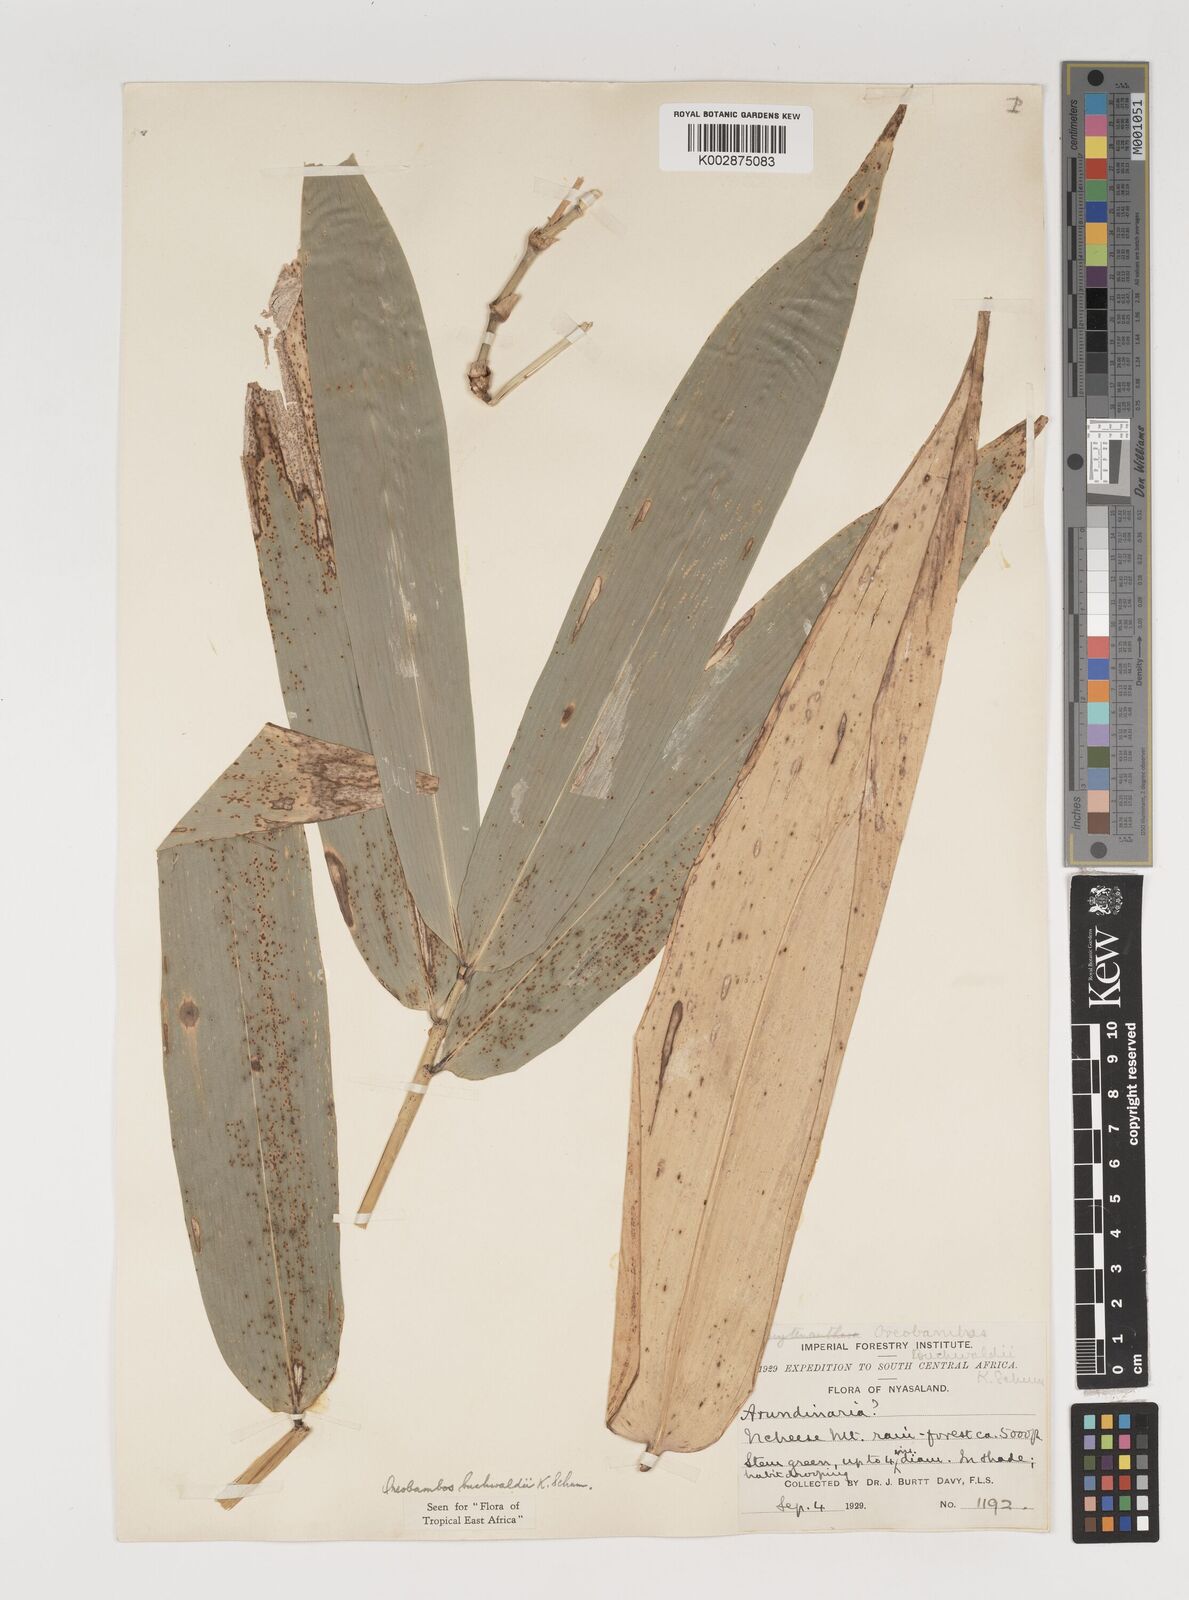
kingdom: Plantae
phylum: Tracheophyta
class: Liliopsida
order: Poales
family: Poaceae
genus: Oreobambos
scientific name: Oreobambos buchwaldii
